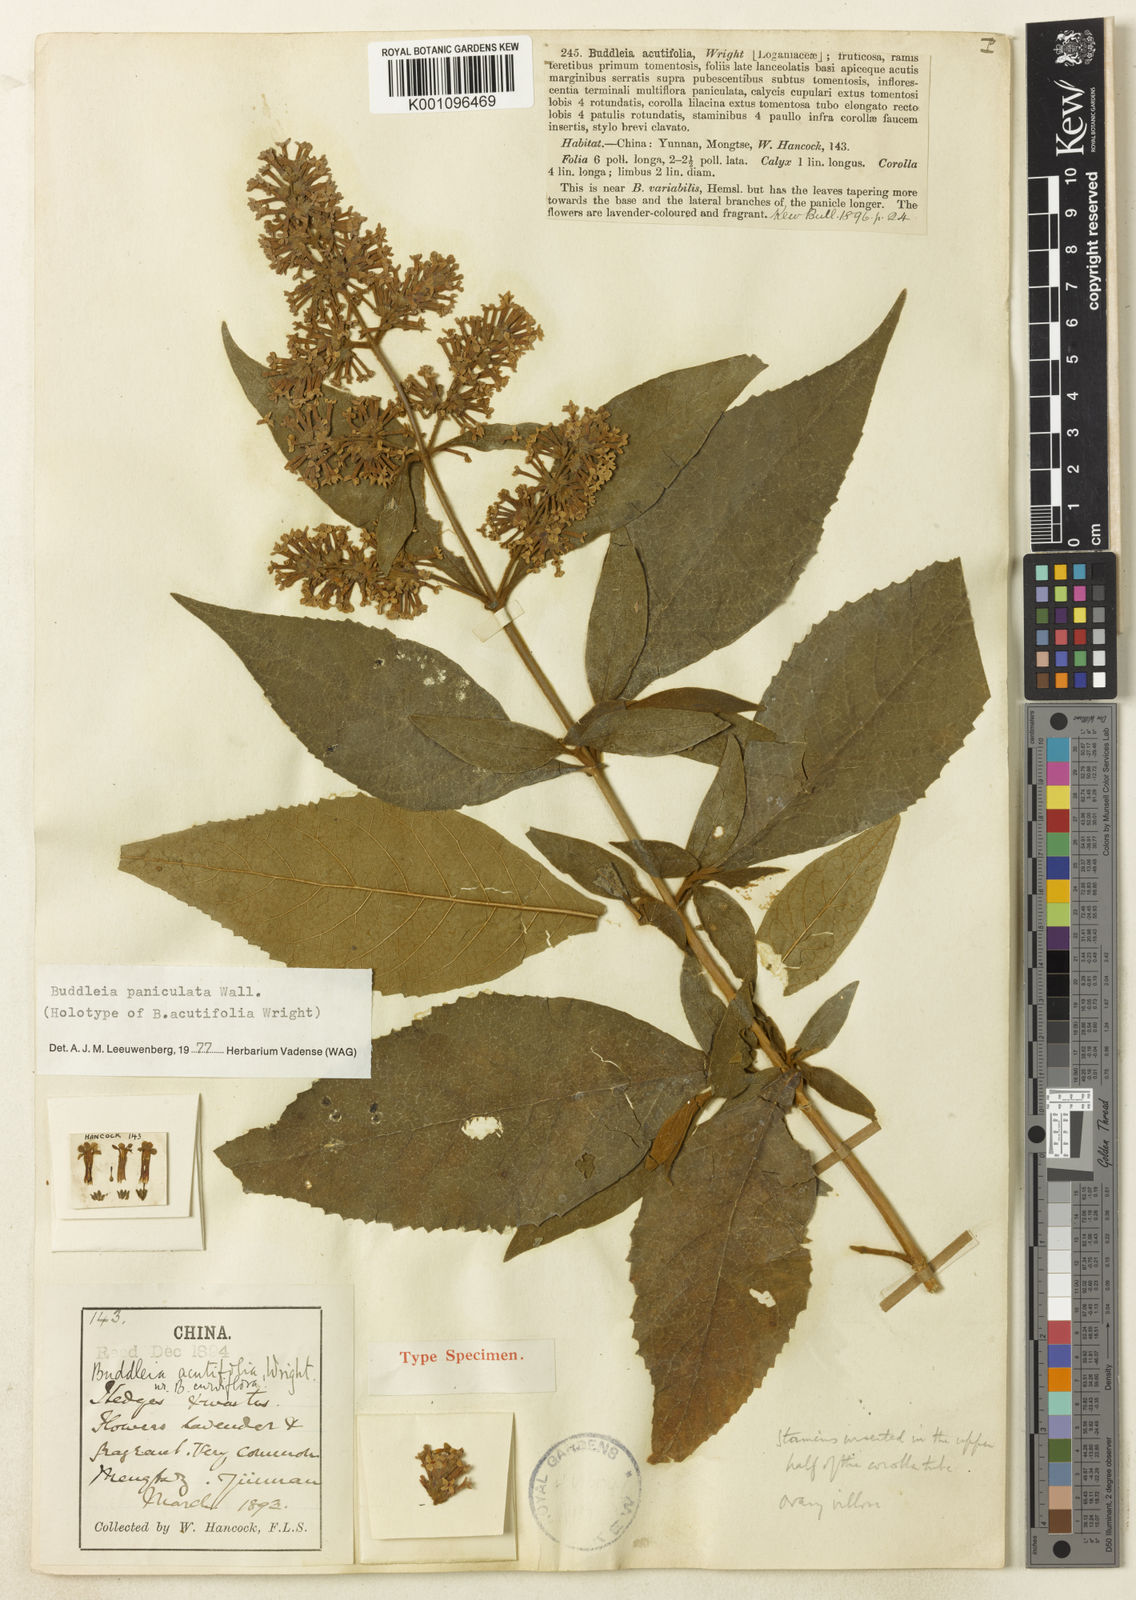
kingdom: Plantae
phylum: Tracheophyta
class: Magnoliopsida
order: Lamiales
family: Scrophulariaceae
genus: Buddleja
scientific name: Buddleja
